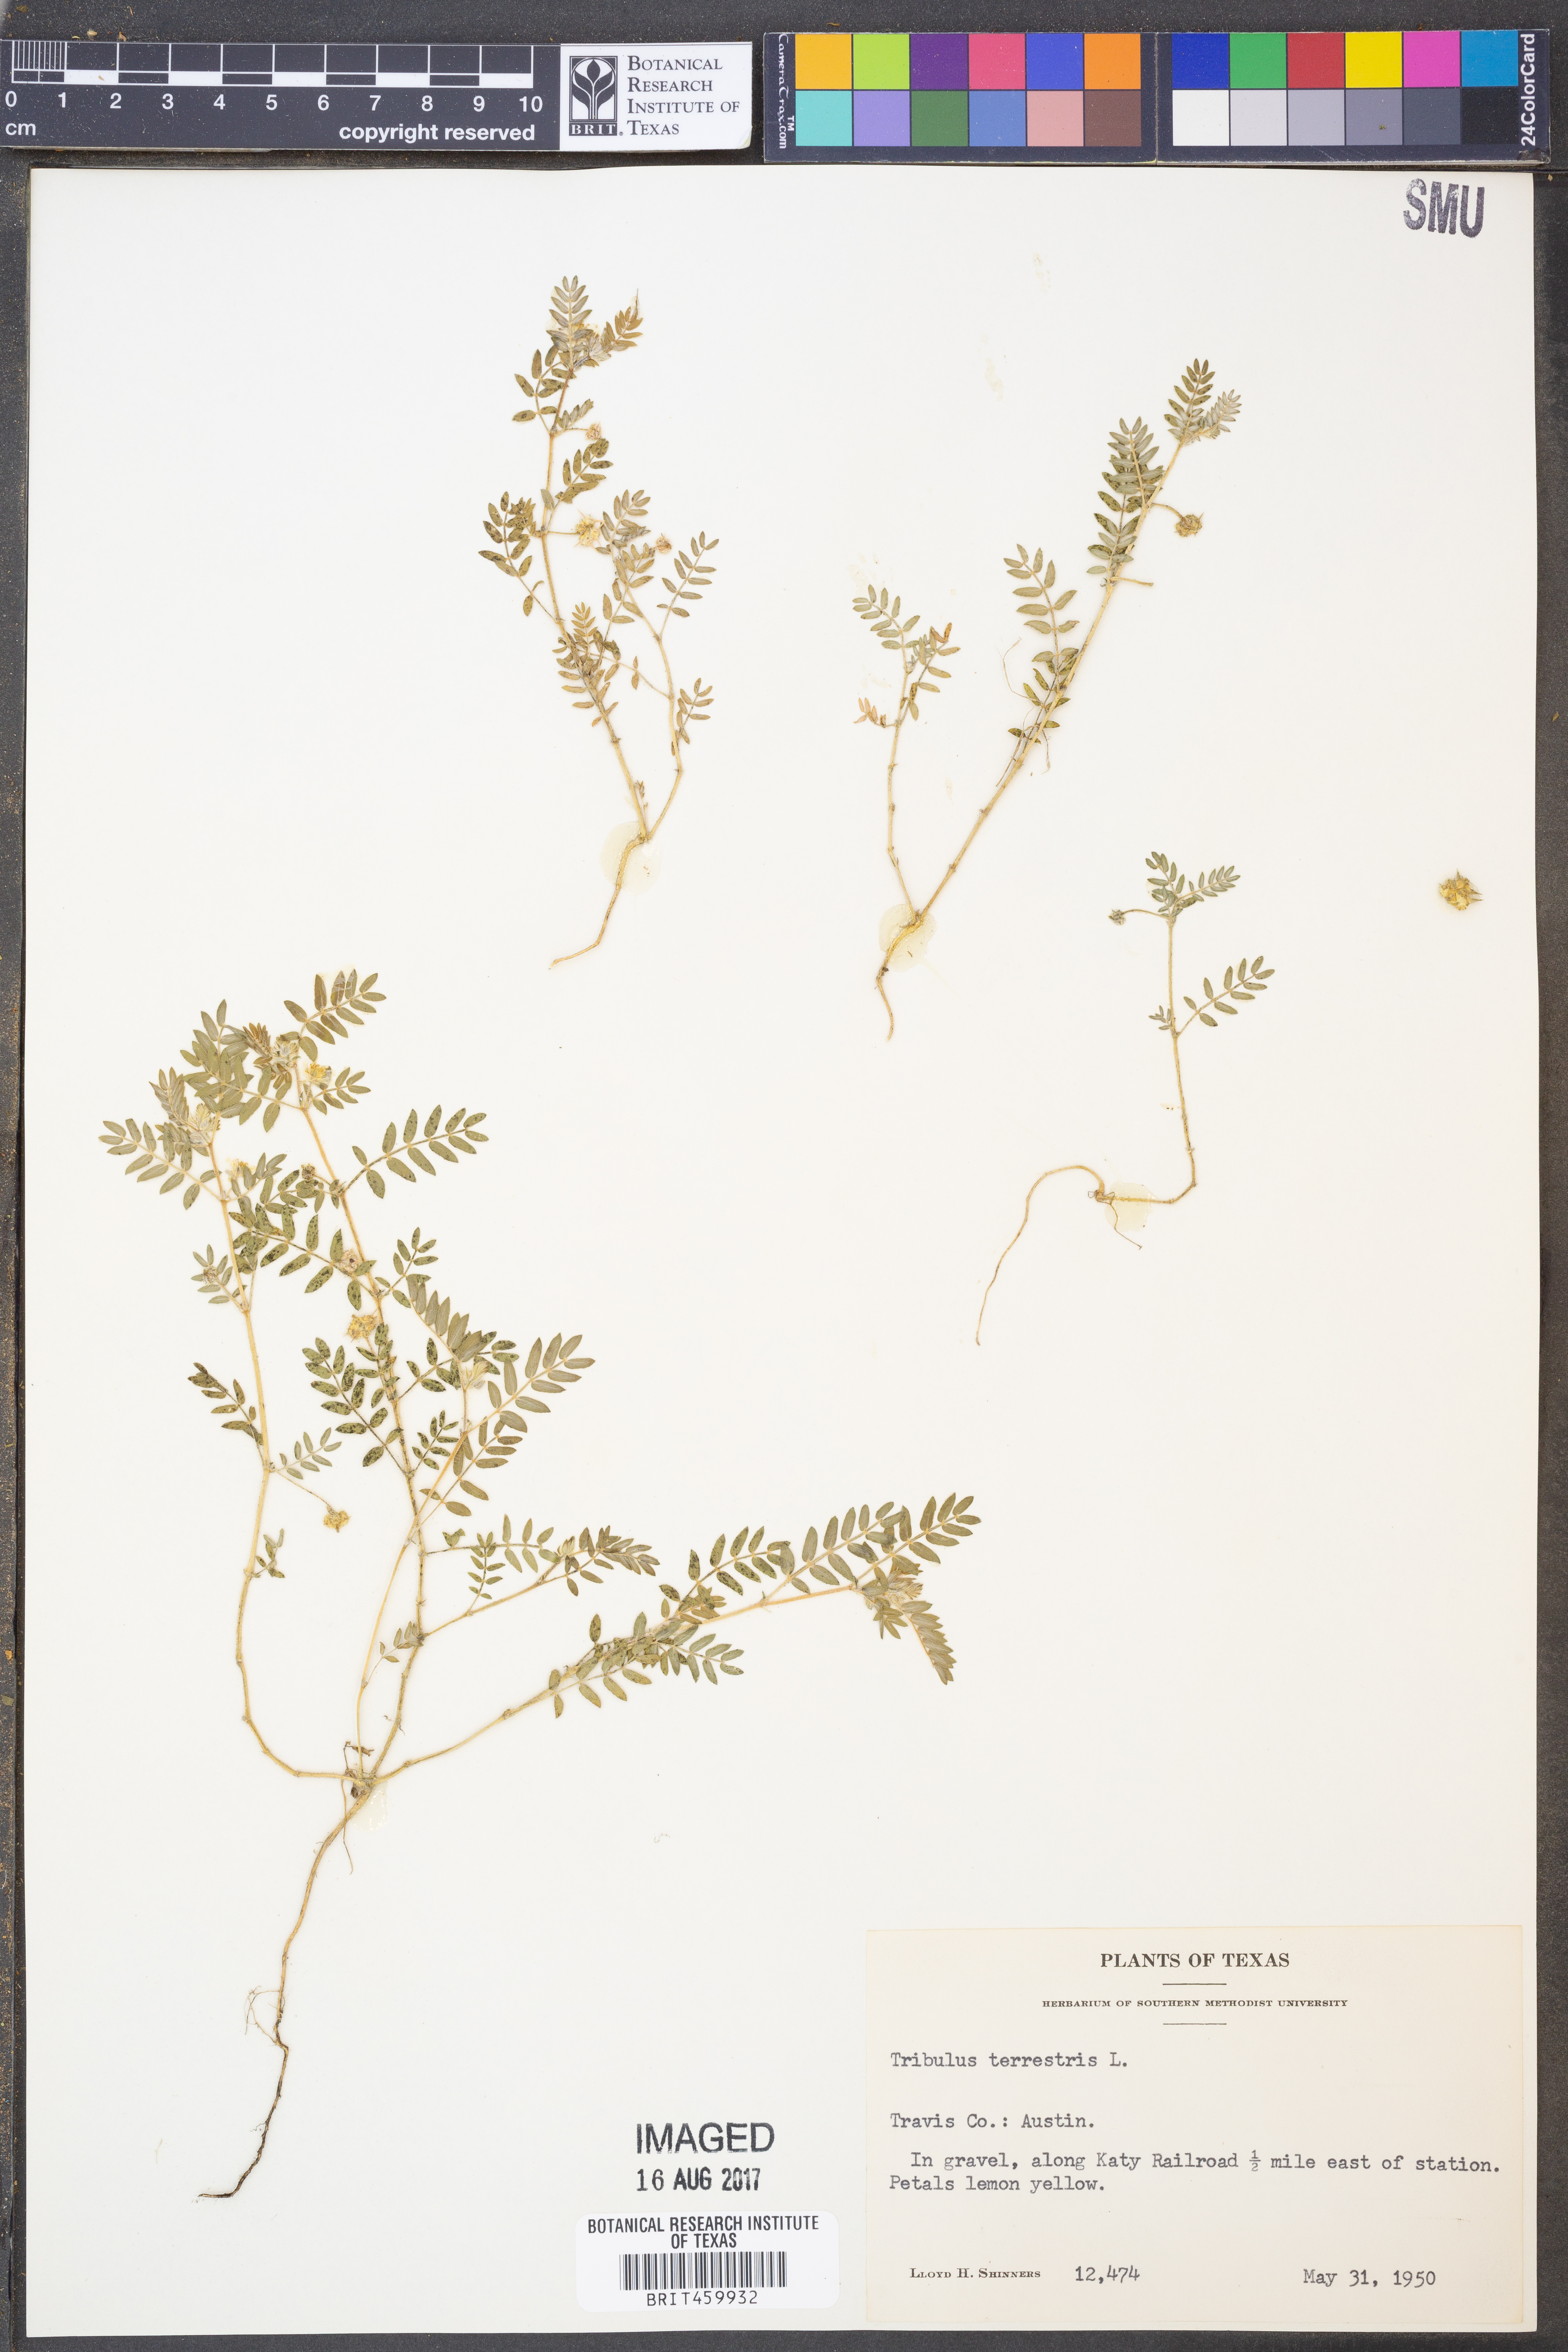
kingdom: Plantae
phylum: Tracheophyta
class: Magnoliopsida
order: Zygophyllales
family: Zygophyllaceae
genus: Tribulus
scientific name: Tribulus terrestris
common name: Puncturevine
